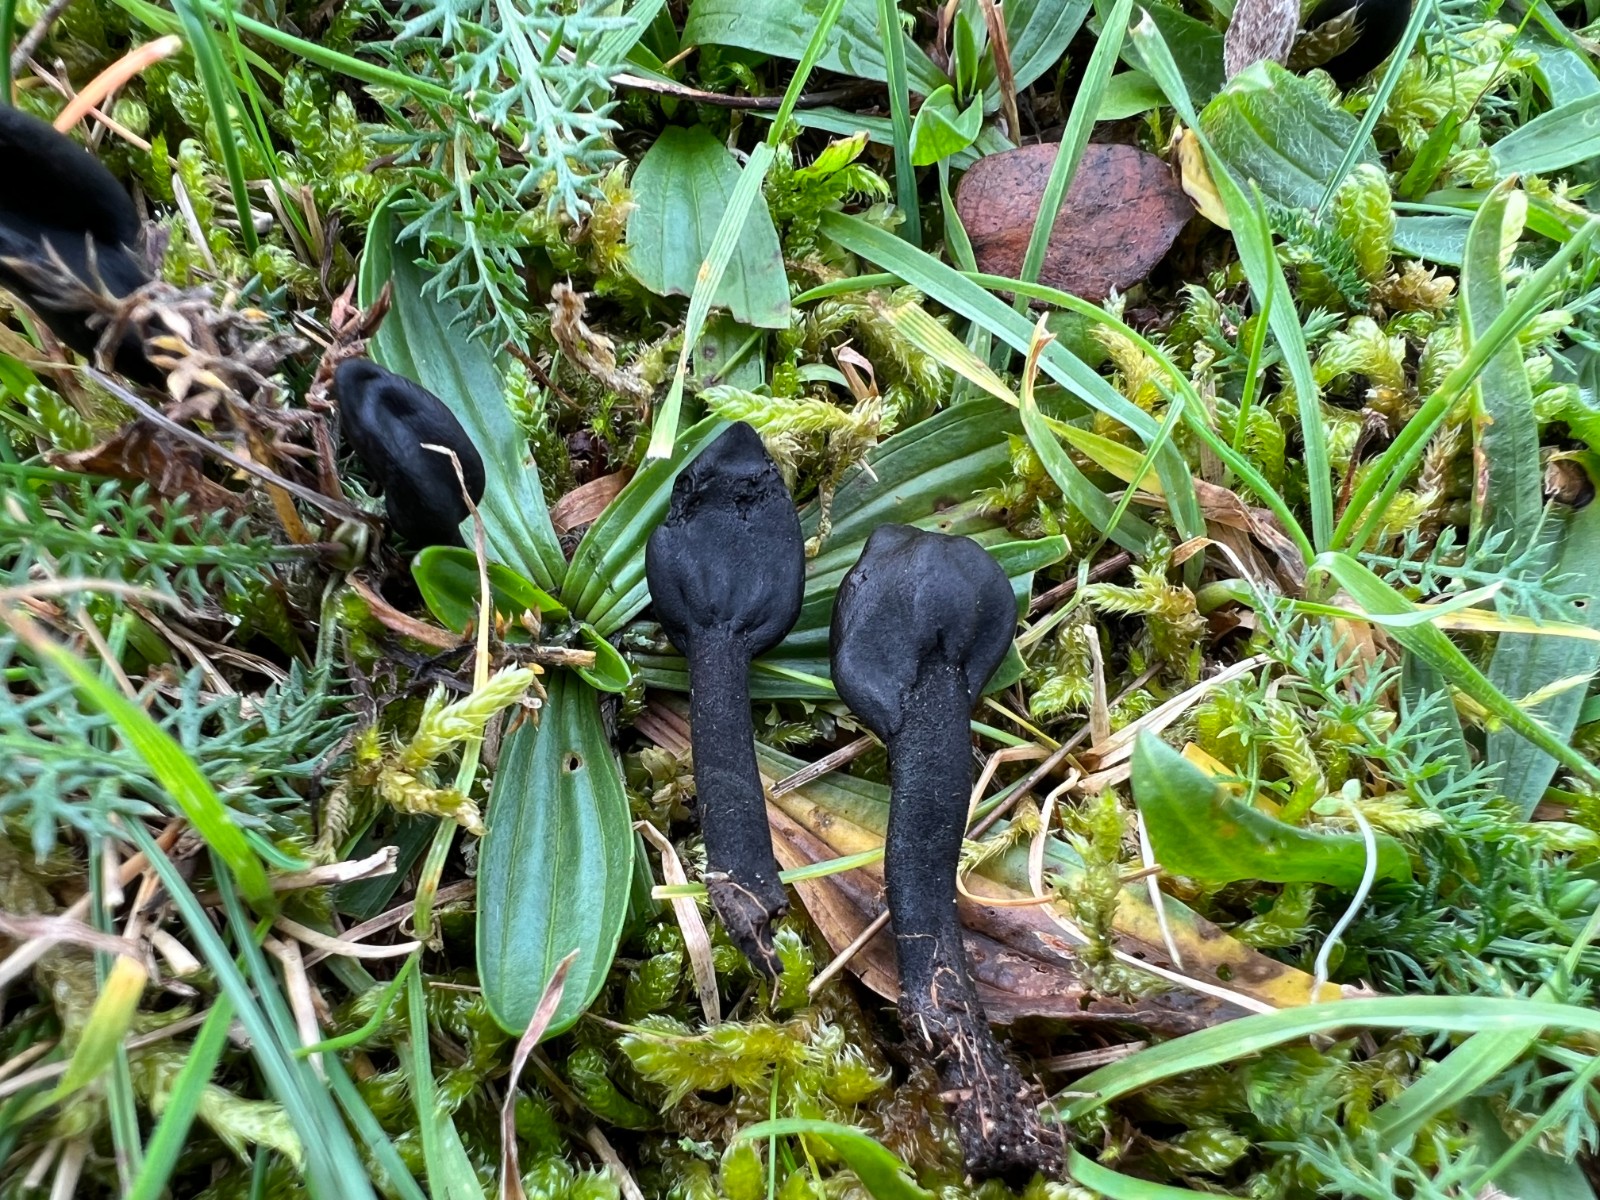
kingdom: Fungi
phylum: Ascomycota
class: Geoglossomycetes
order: Geoglossales
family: Geoglossaceae
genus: Trichoglossum
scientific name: Trichoglossum variabile
